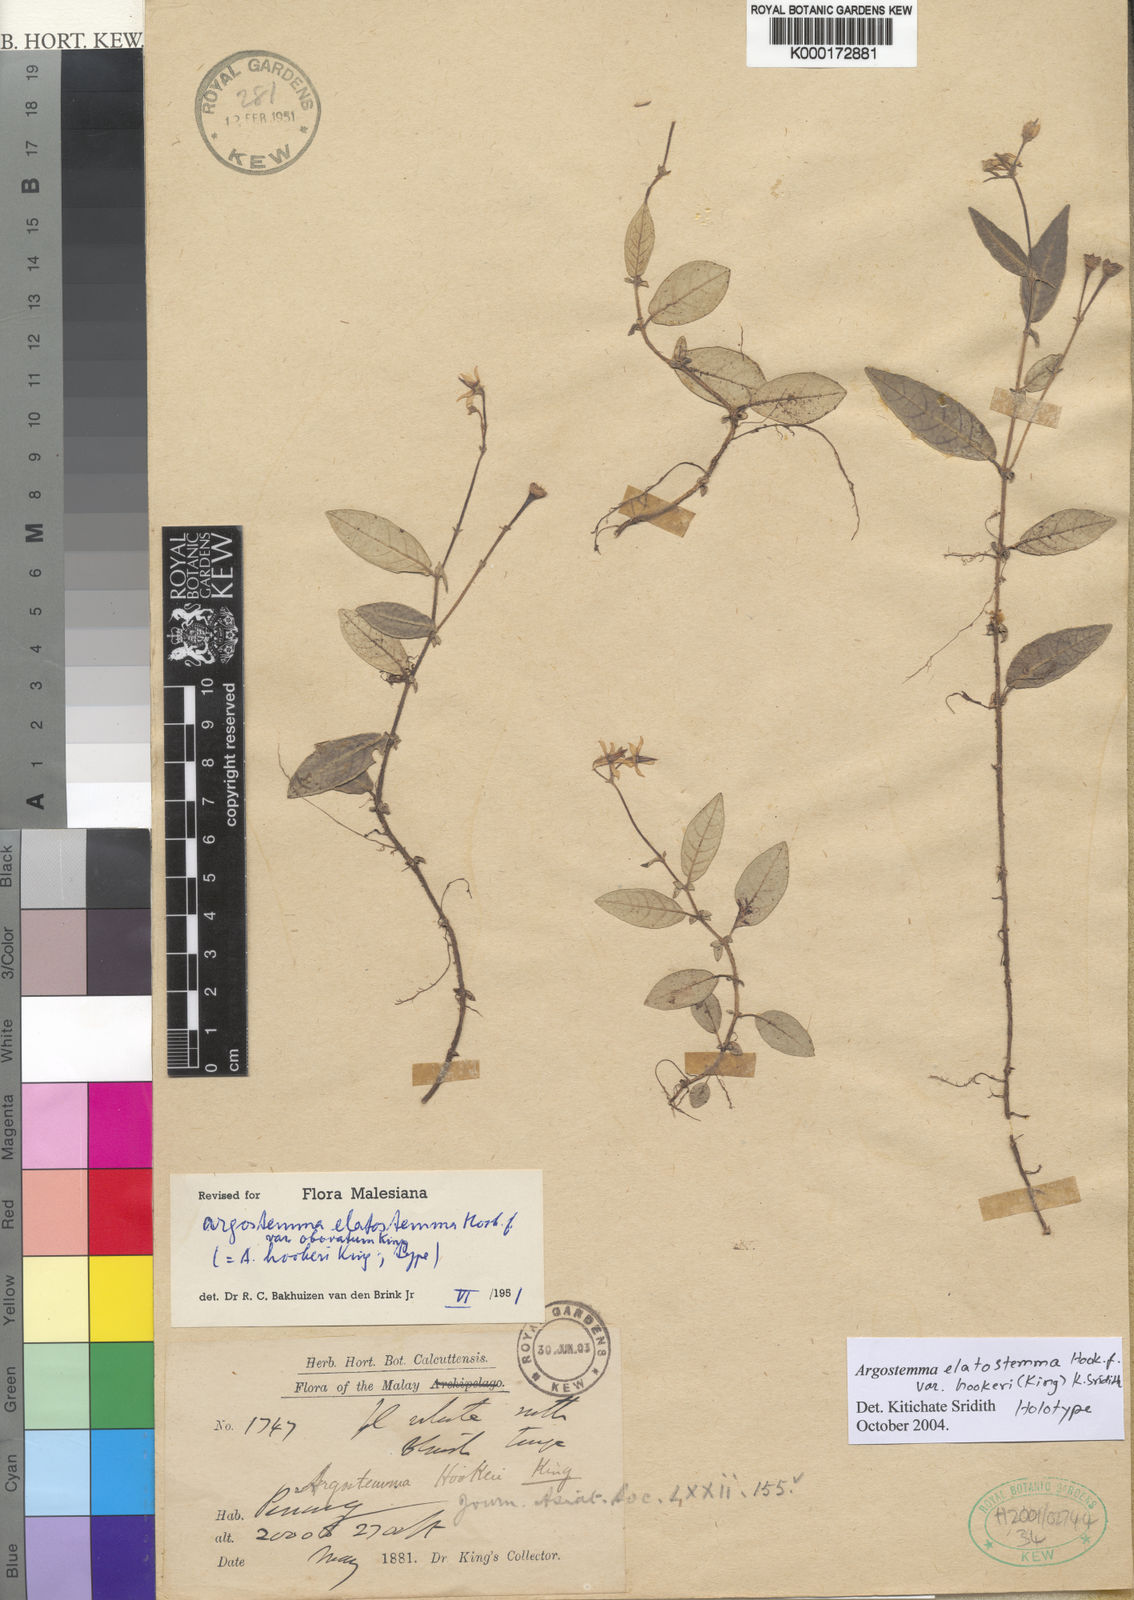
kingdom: Plantae
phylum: Tracheophyta
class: Magnoliopsida
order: Gentianales
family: Rubiaceae
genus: Argostemma
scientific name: Argostemma elatostemma
